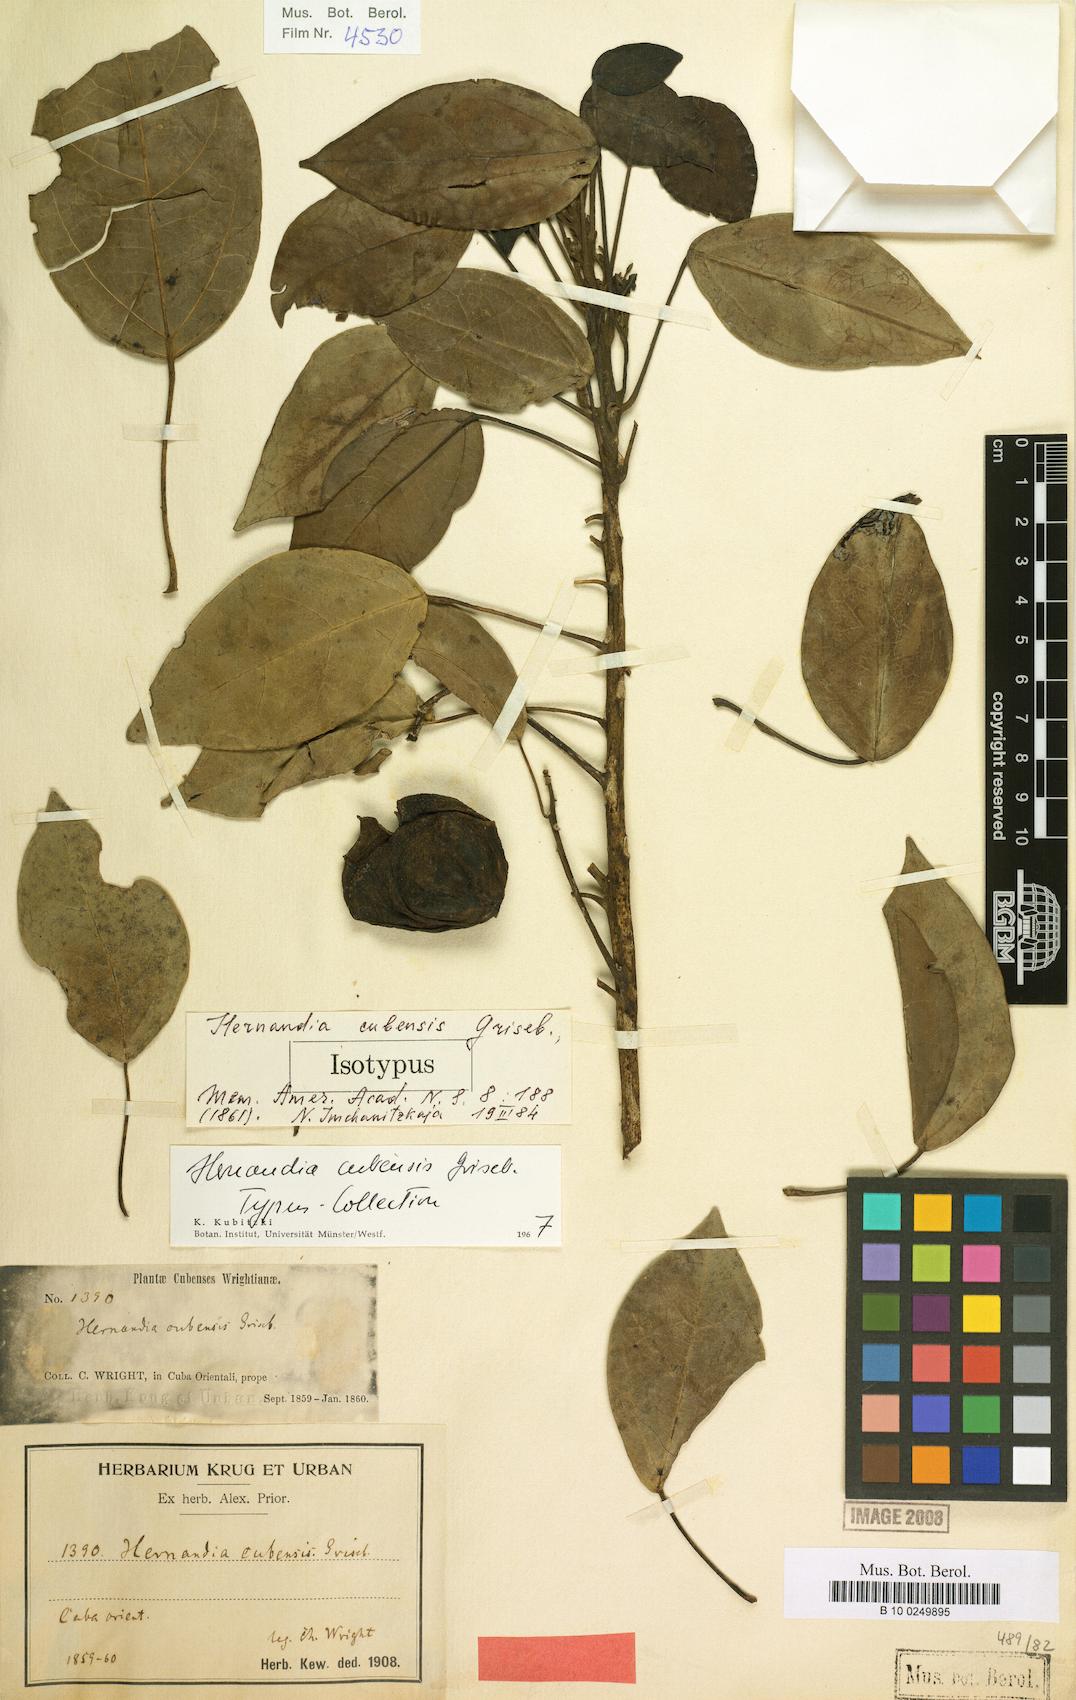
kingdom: Plantae
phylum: Tracheophyta
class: Magnoliopsida
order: Laurales
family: Hernandiaceae
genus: Hernandia
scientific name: Hernandia cubensis
